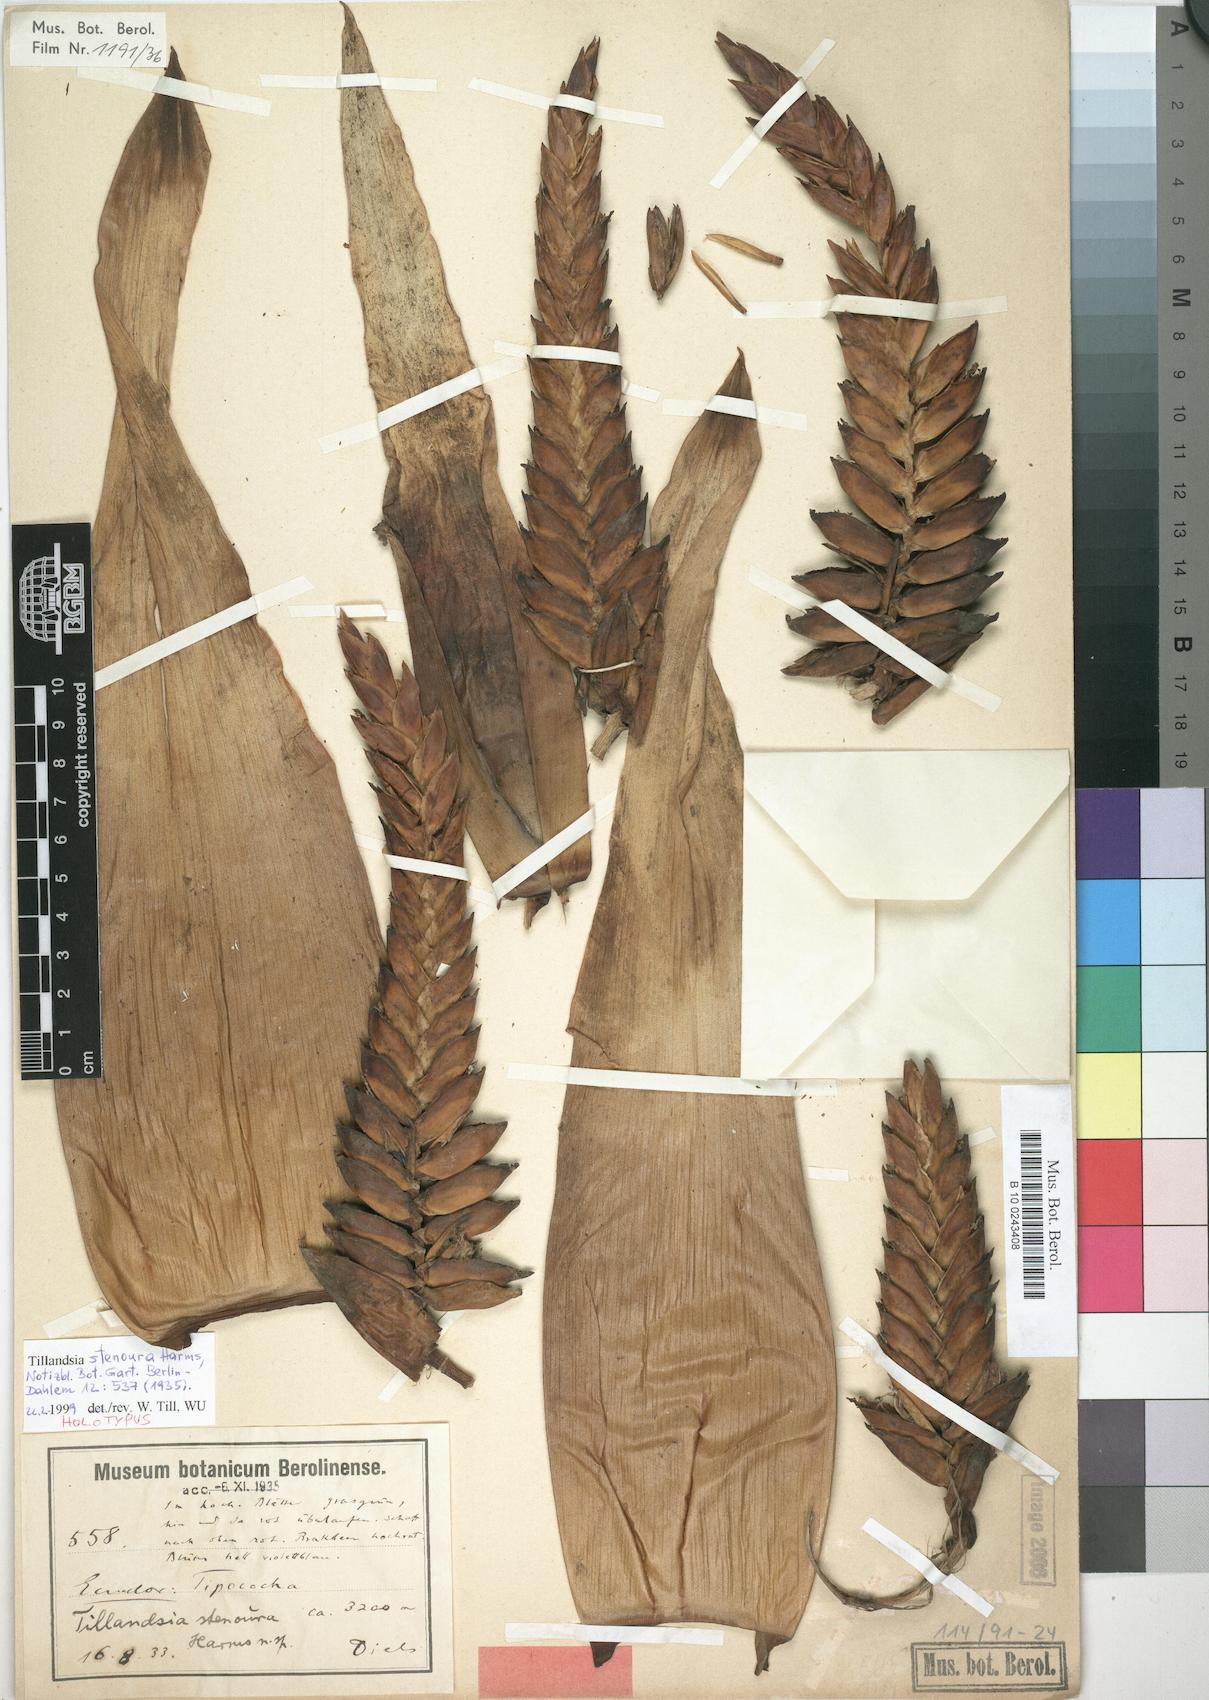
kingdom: Plantae
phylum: Tracheophyta
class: Liliopsida
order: Poales
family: Bromeliaceae
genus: Tillandsia
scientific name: Tillandsia stenoura
